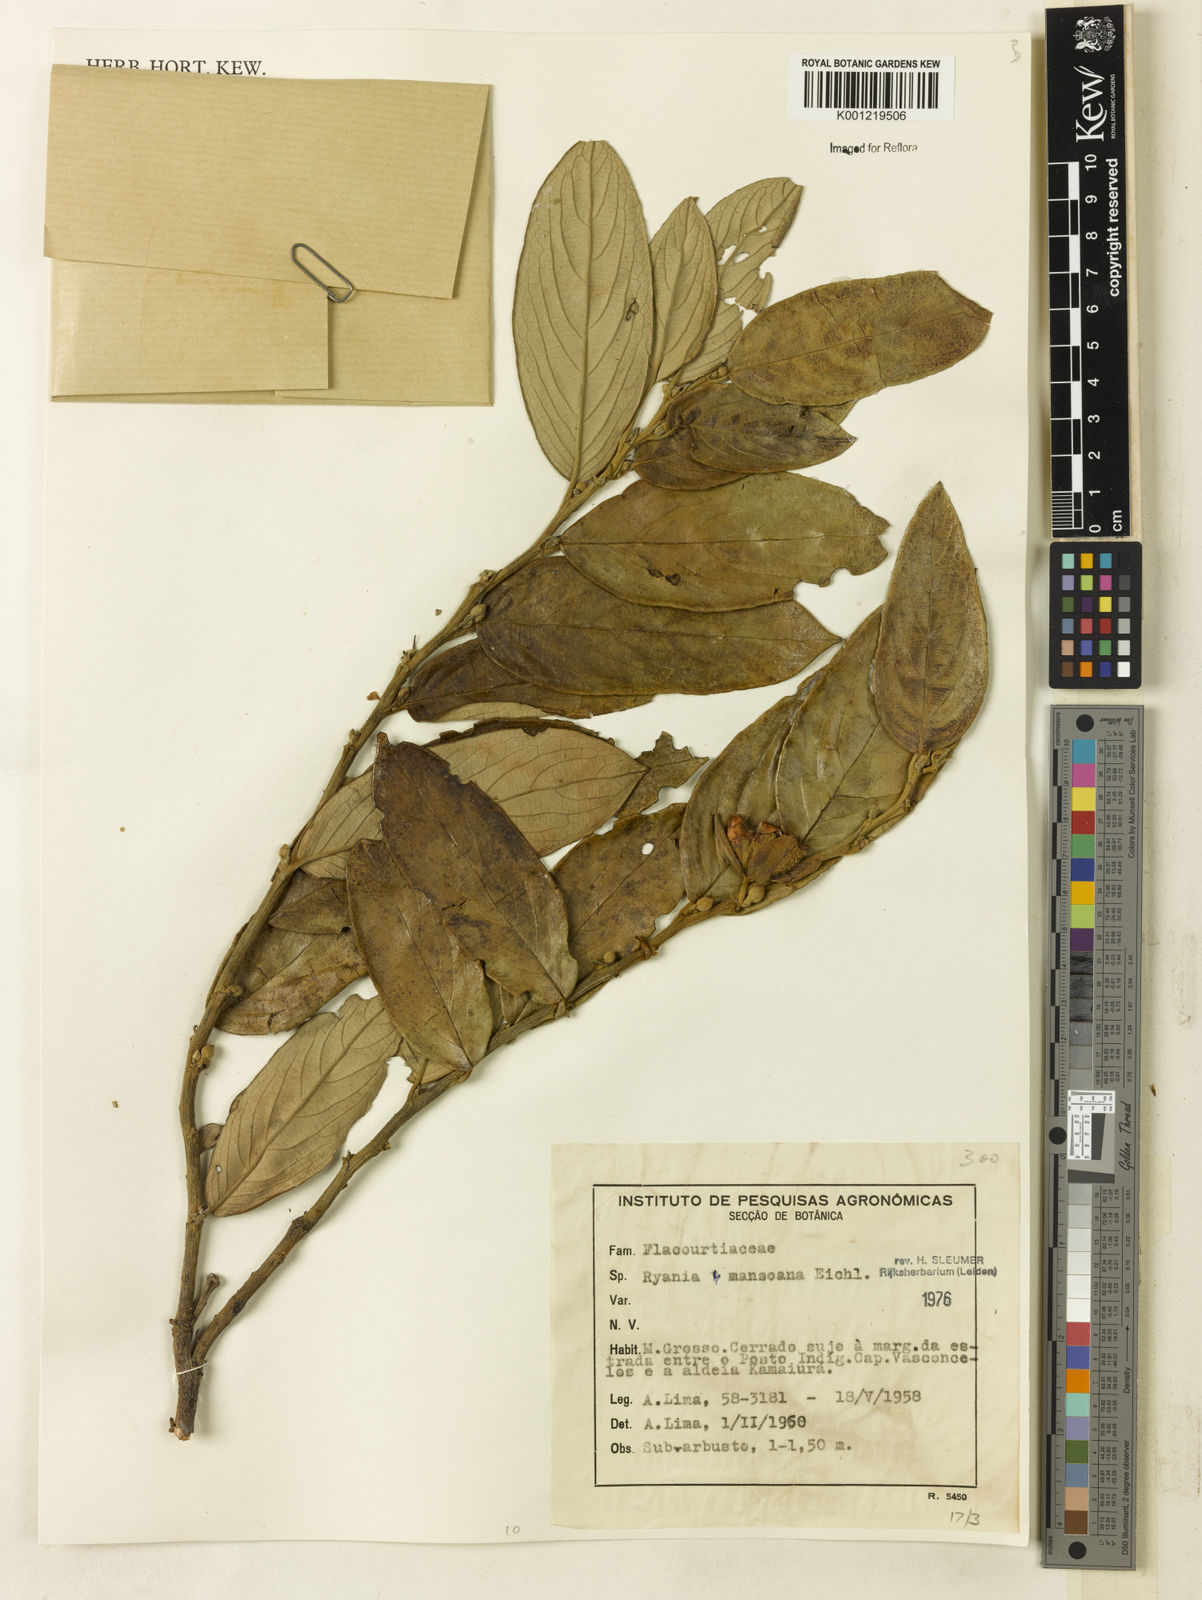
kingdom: Plantae
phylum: Tracheophyta
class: Magnoliopsida
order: Malpighiales
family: Salicaceae
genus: Ryania
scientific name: Ryania mansoana
